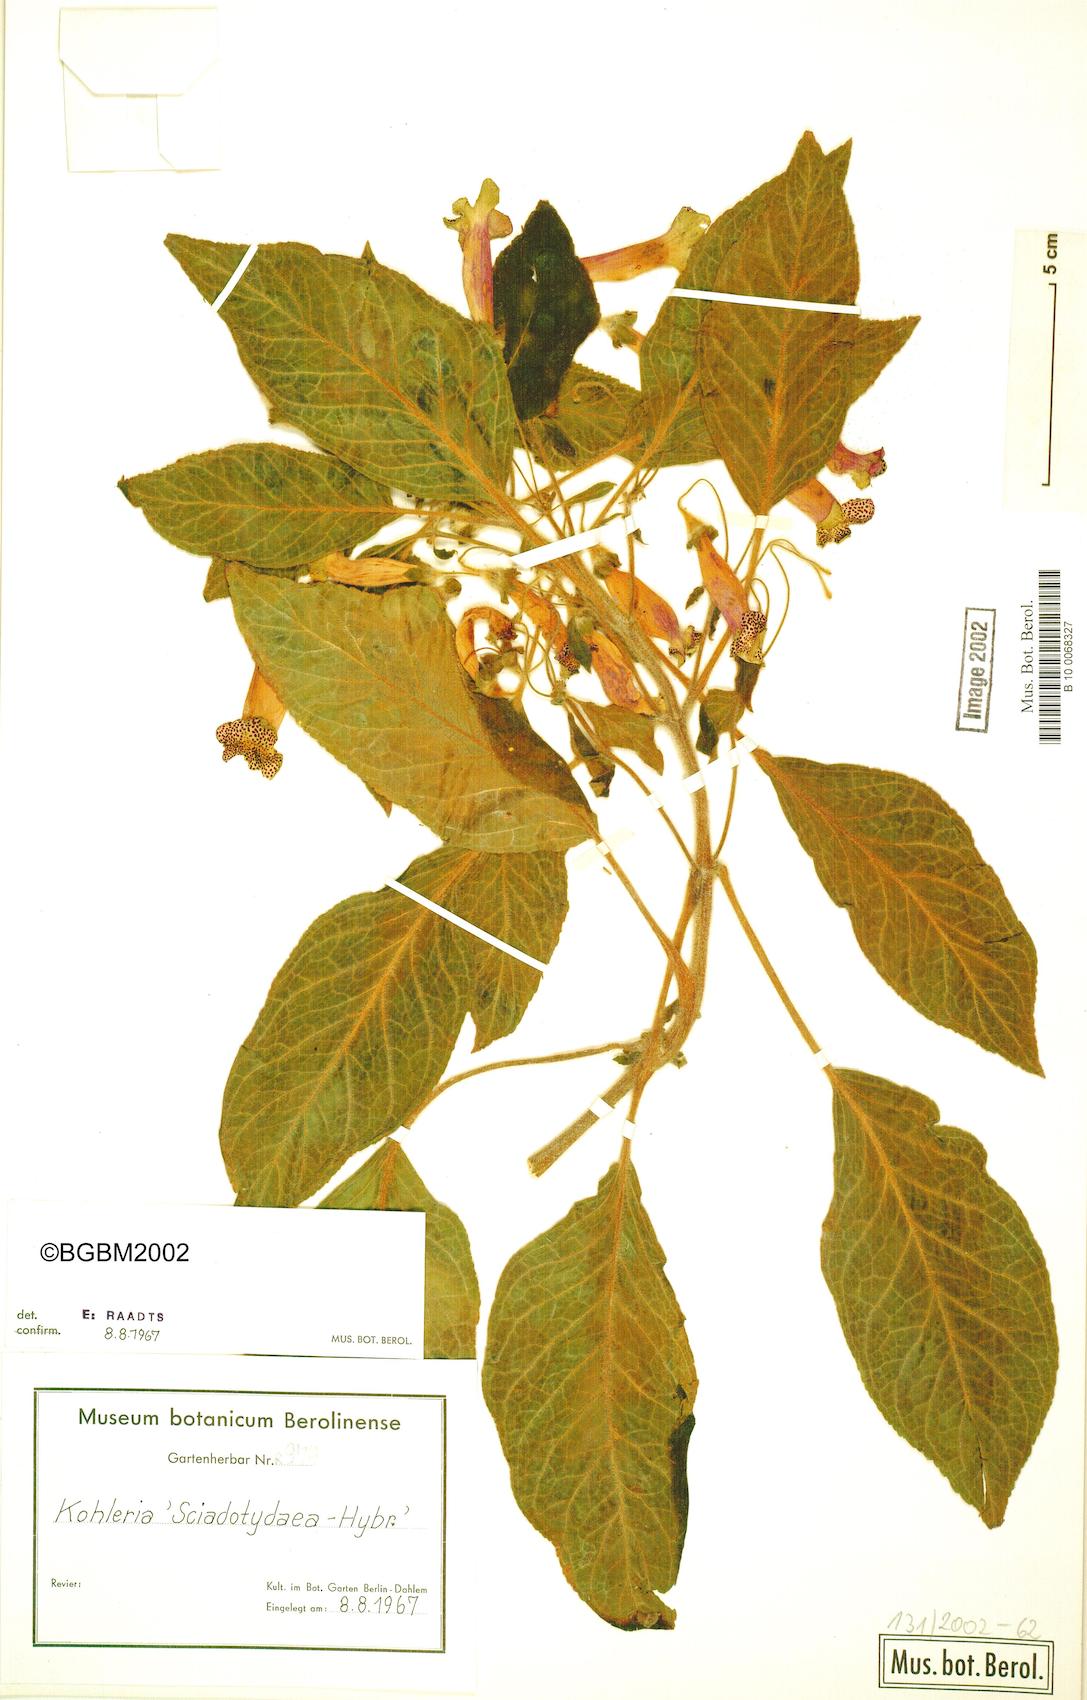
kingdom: Plantae
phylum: Tracheophyta
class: Magnoliopsida
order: Lamiales
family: Gesneriaceae
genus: Kohleria
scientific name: Kohleria
